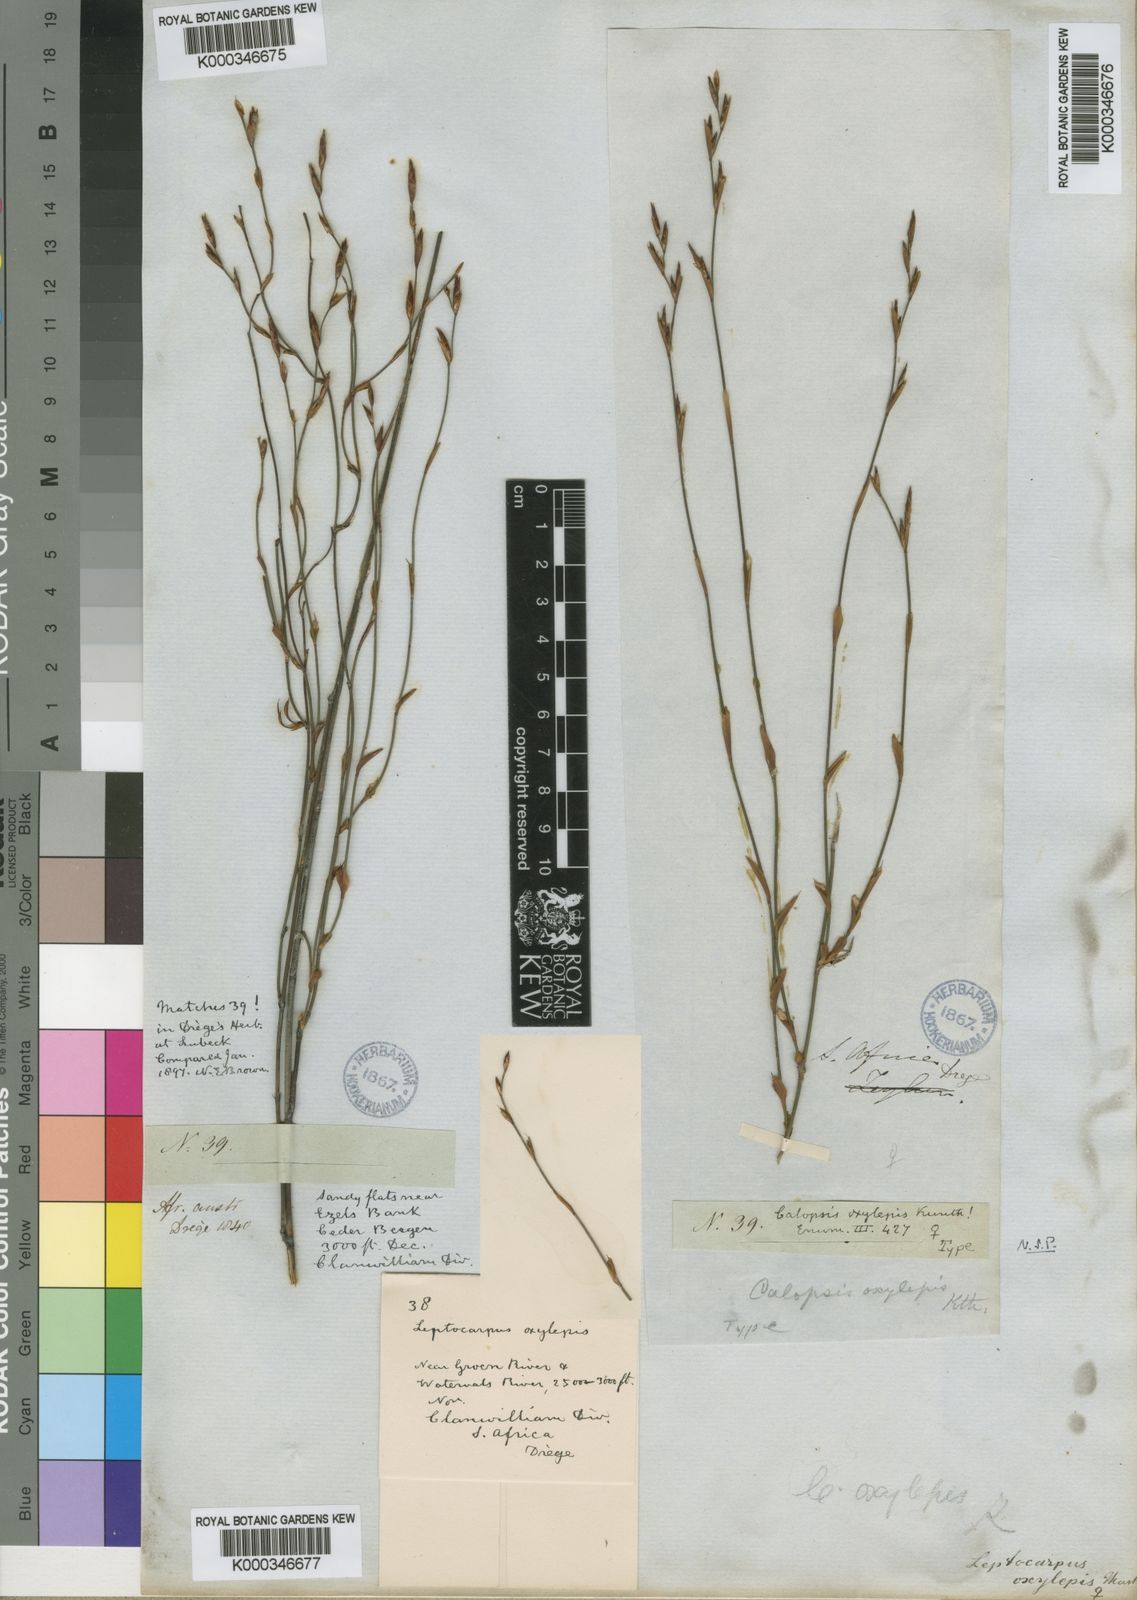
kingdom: Plantae
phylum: Tracheophyta
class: Liliopsida
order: Poales
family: Restionaceae
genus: Restio
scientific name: Restio vimineus
